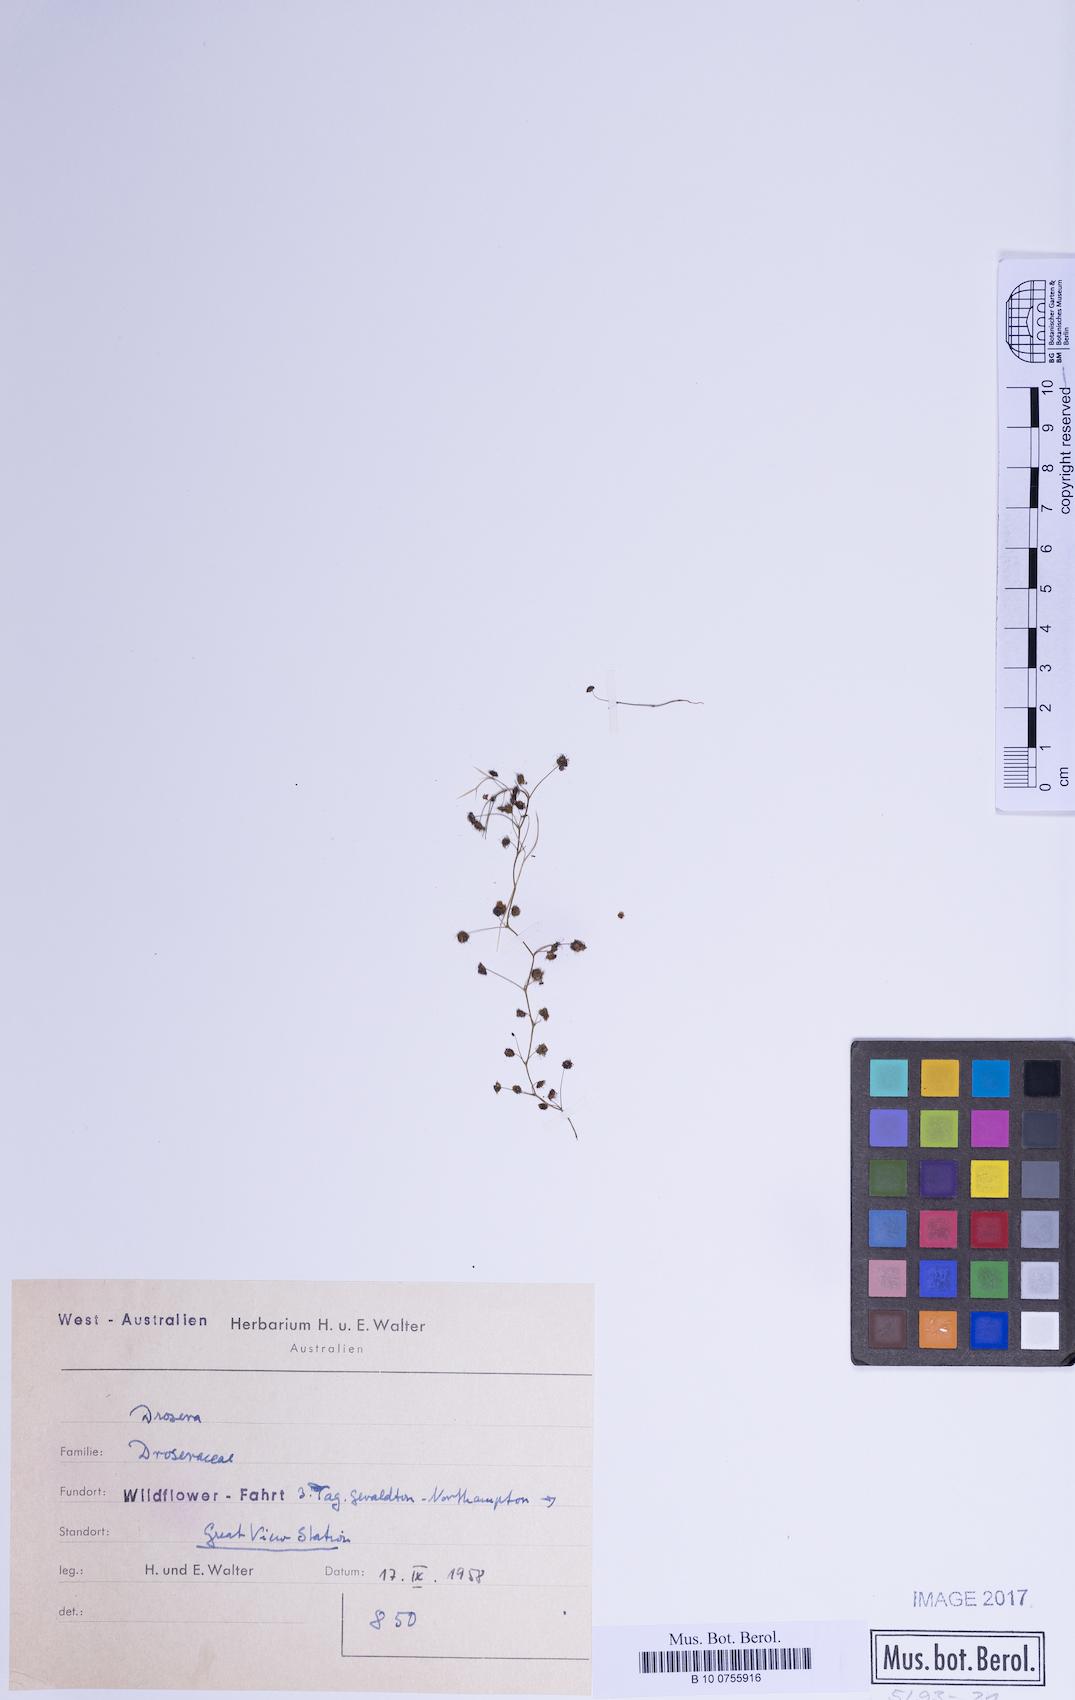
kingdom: Plantae
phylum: Tracheophyta
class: Magnoliopsida
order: Caryophyllales
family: Droseraceae
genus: Drosera
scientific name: Drosera
